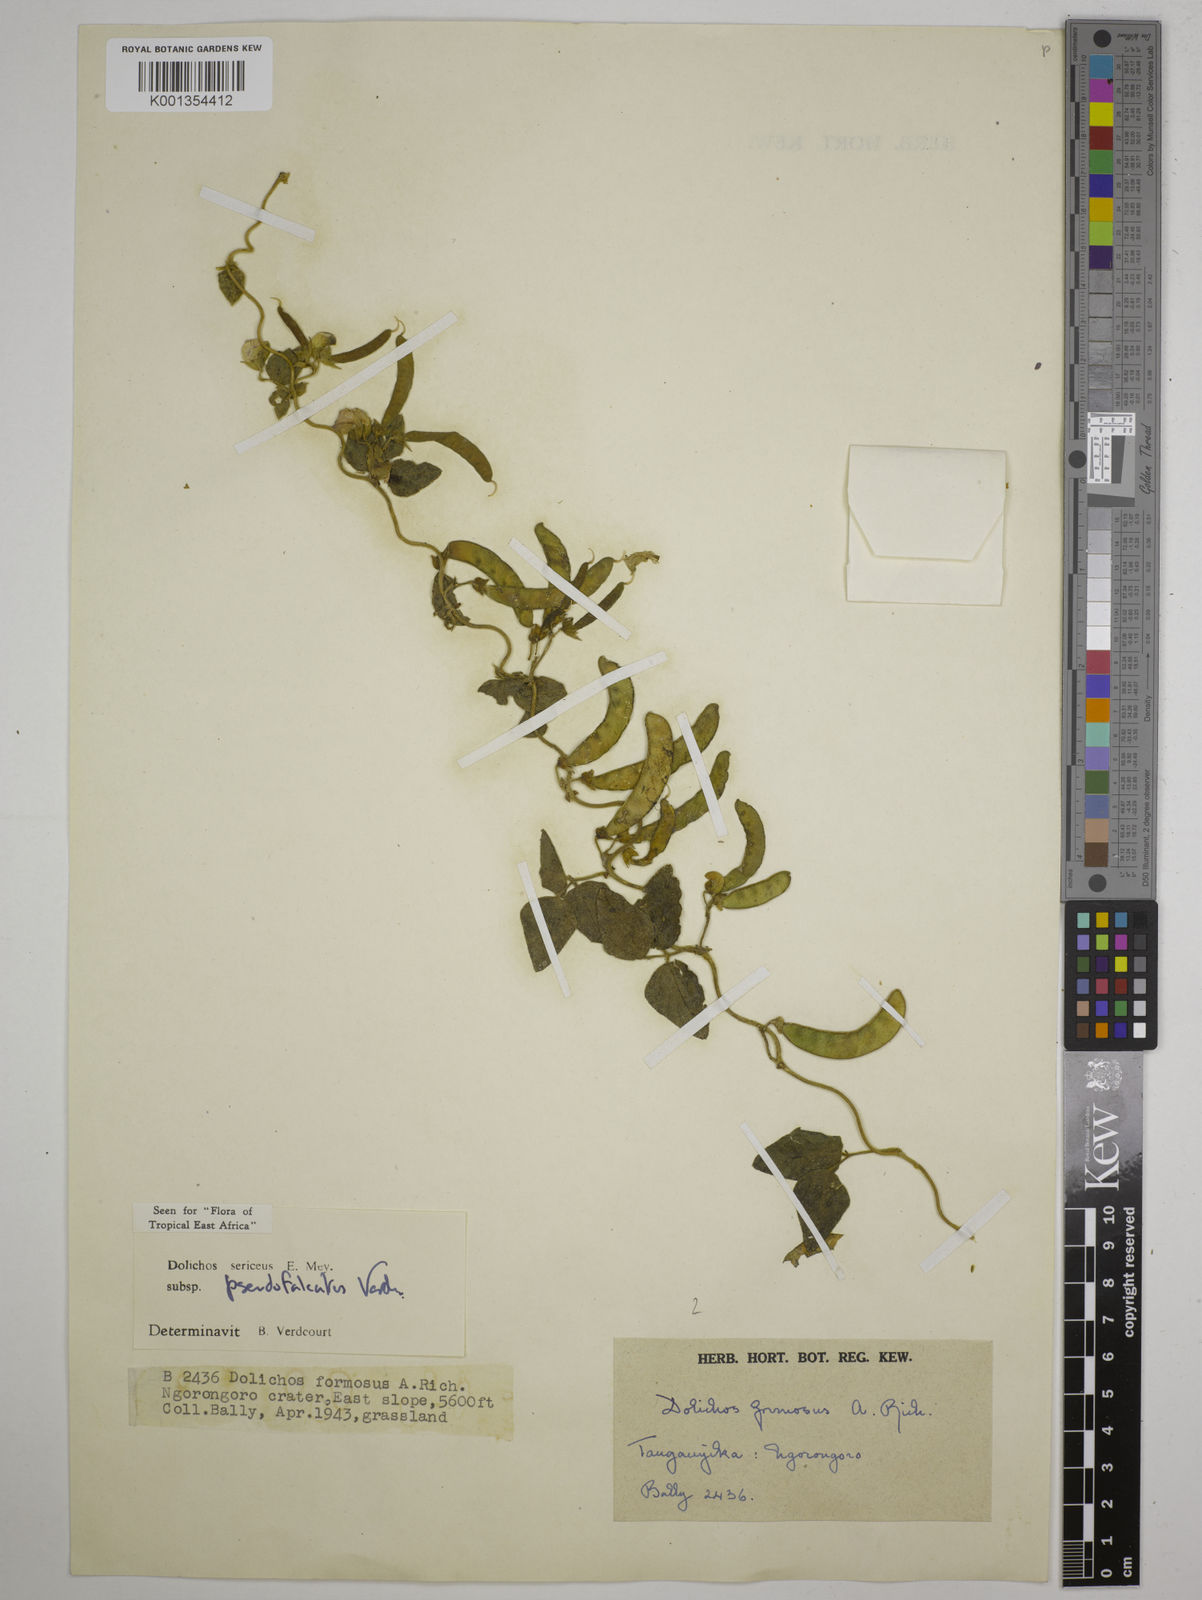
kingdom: Plantae
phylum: Tracheophyta
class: Magnoliopsida
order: Fabales
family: Fabaceae
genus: Dolichos
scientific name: Dolichos
